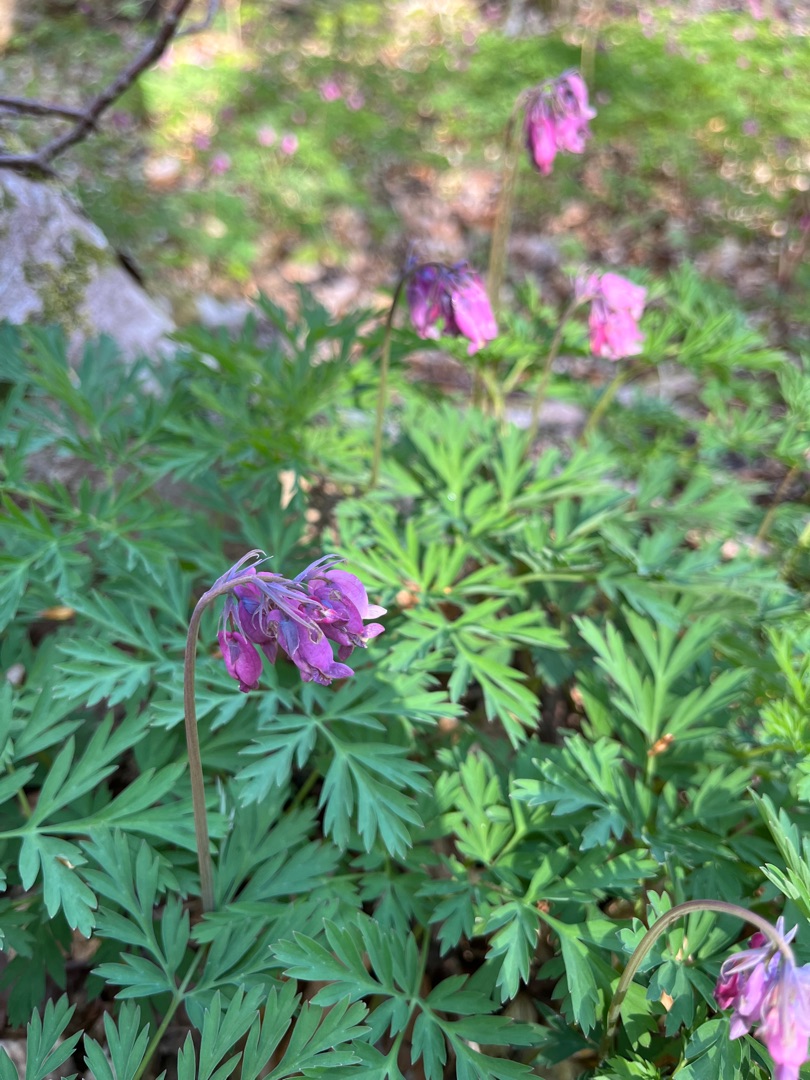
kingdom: Plantae
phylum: Tracheophyta
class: Magnoliopsida
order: Ranunculales
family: Papaveraceae
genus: Dicentra
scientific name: Dicentra formosa
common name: Småhjerte
